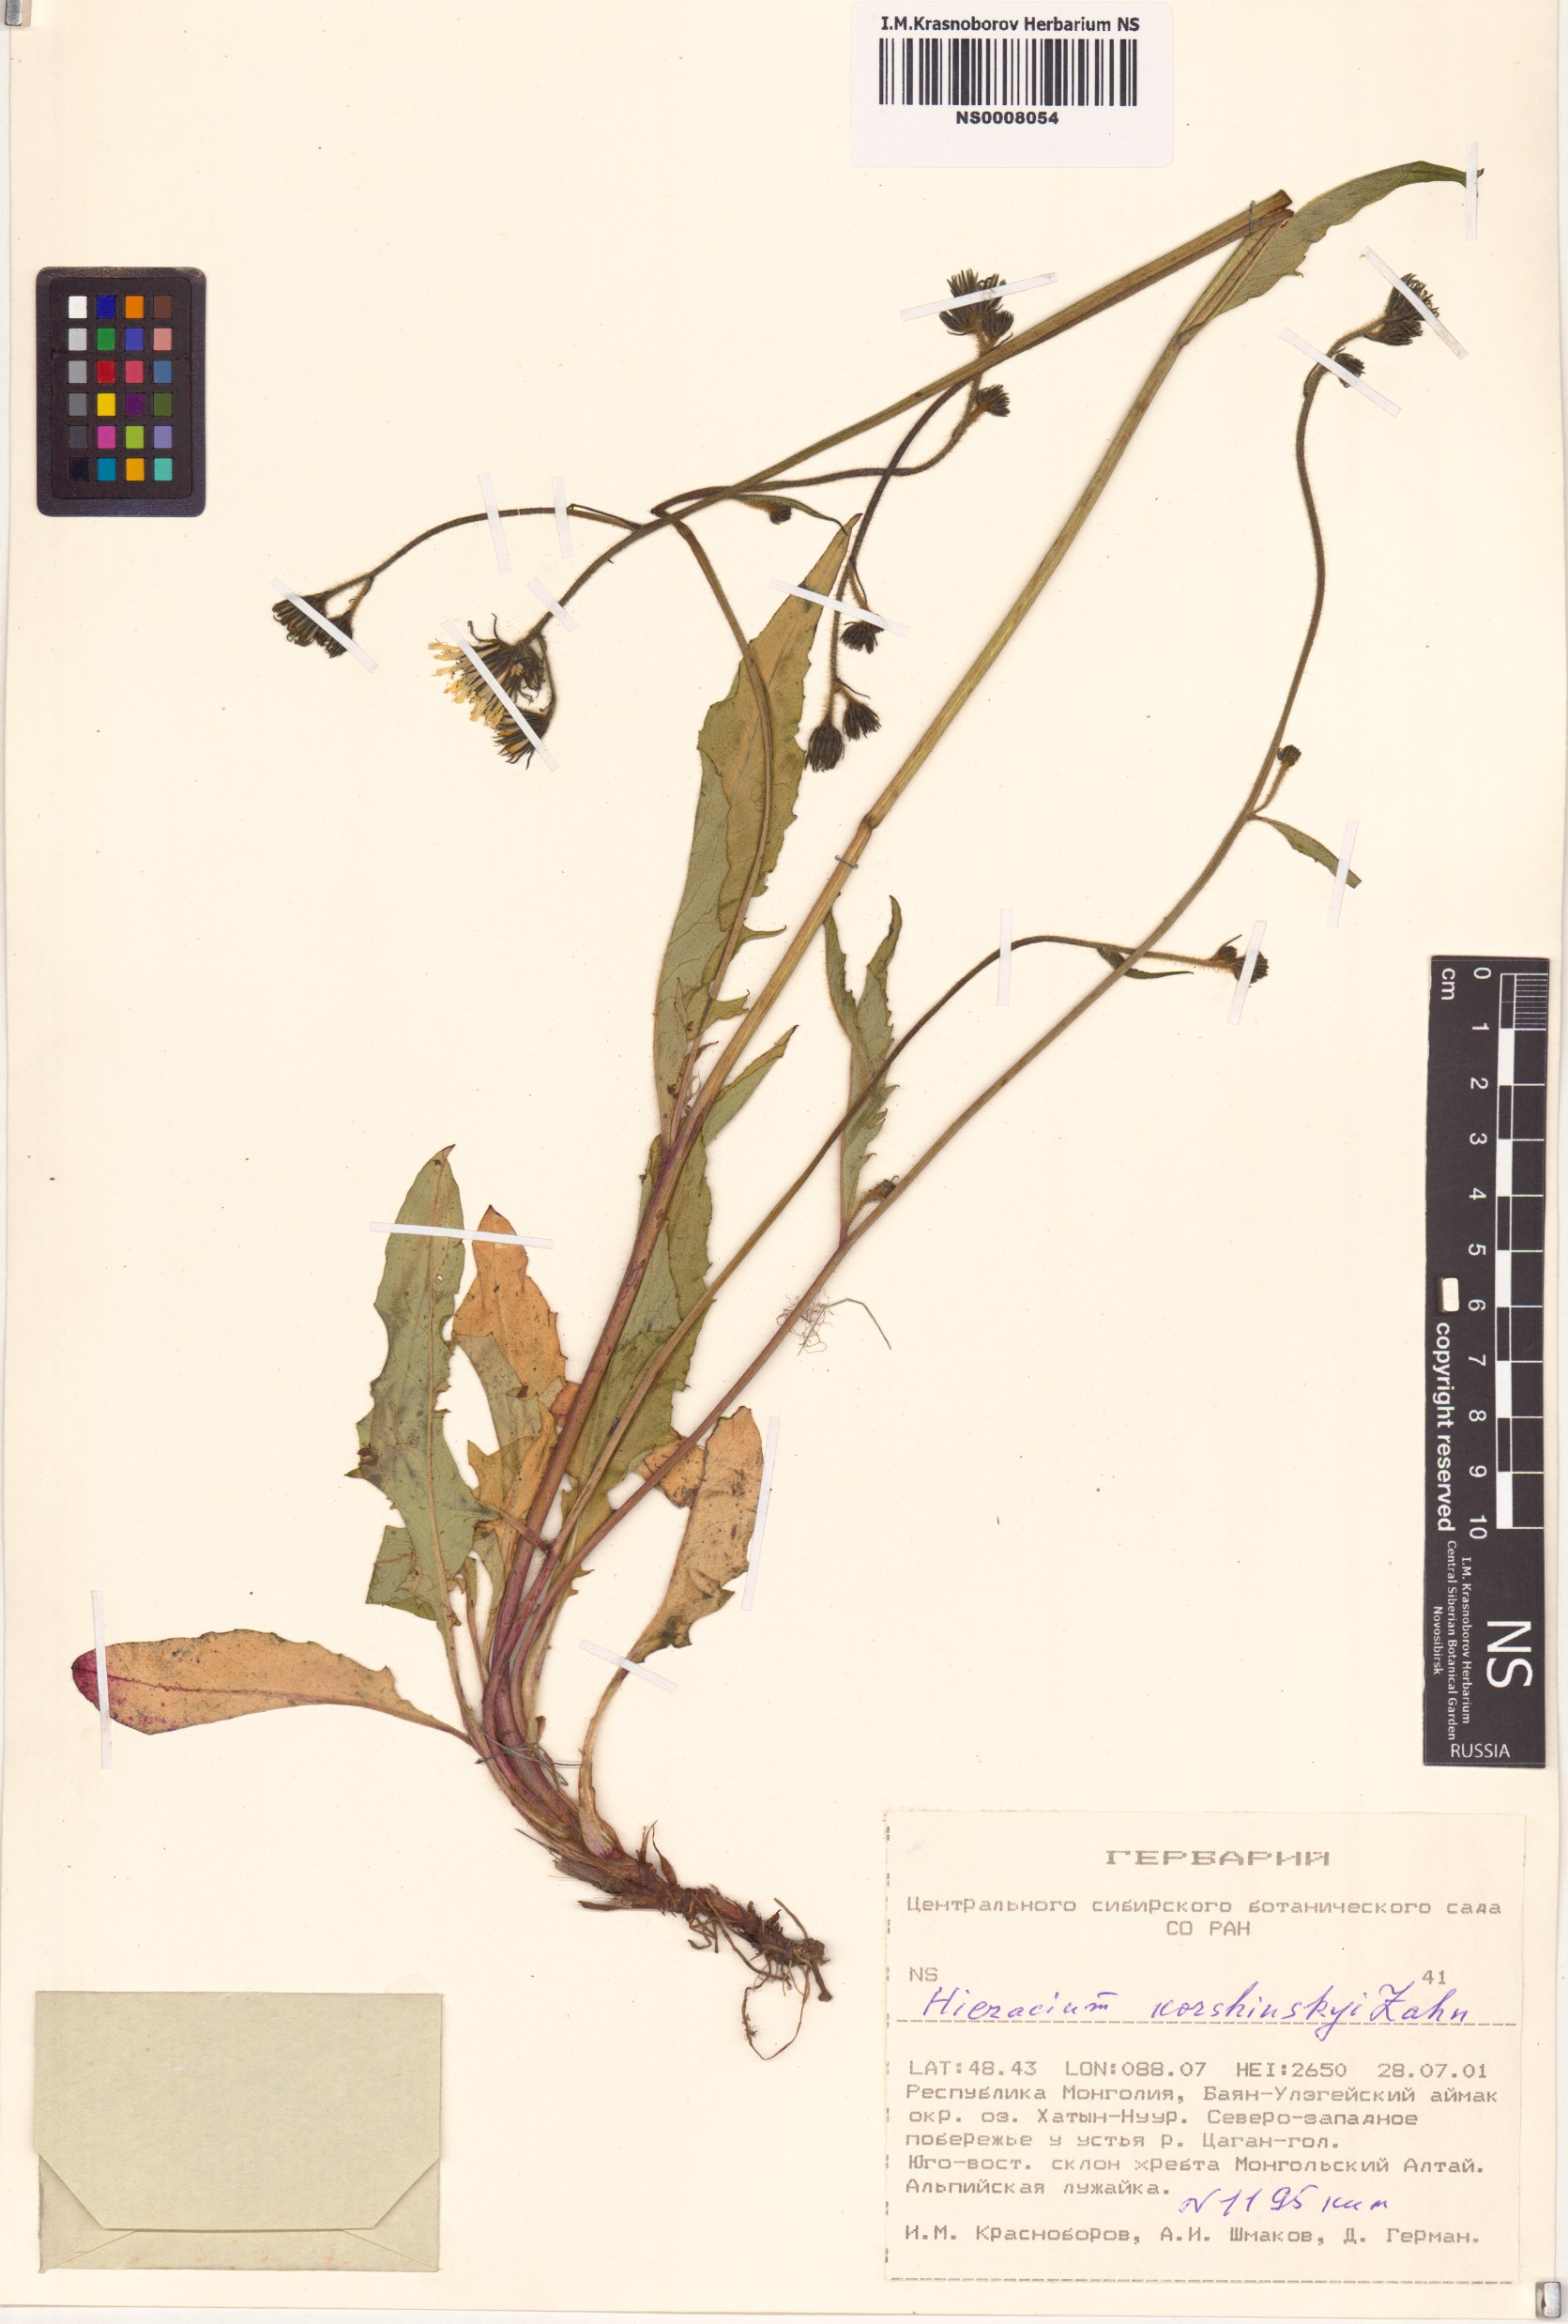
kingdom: Plantae
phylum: Tracheophyta
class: Magnoliopsida
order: Asterales
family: Asteraceae
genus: Hieracium
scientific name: Hieracium korshinskyi
